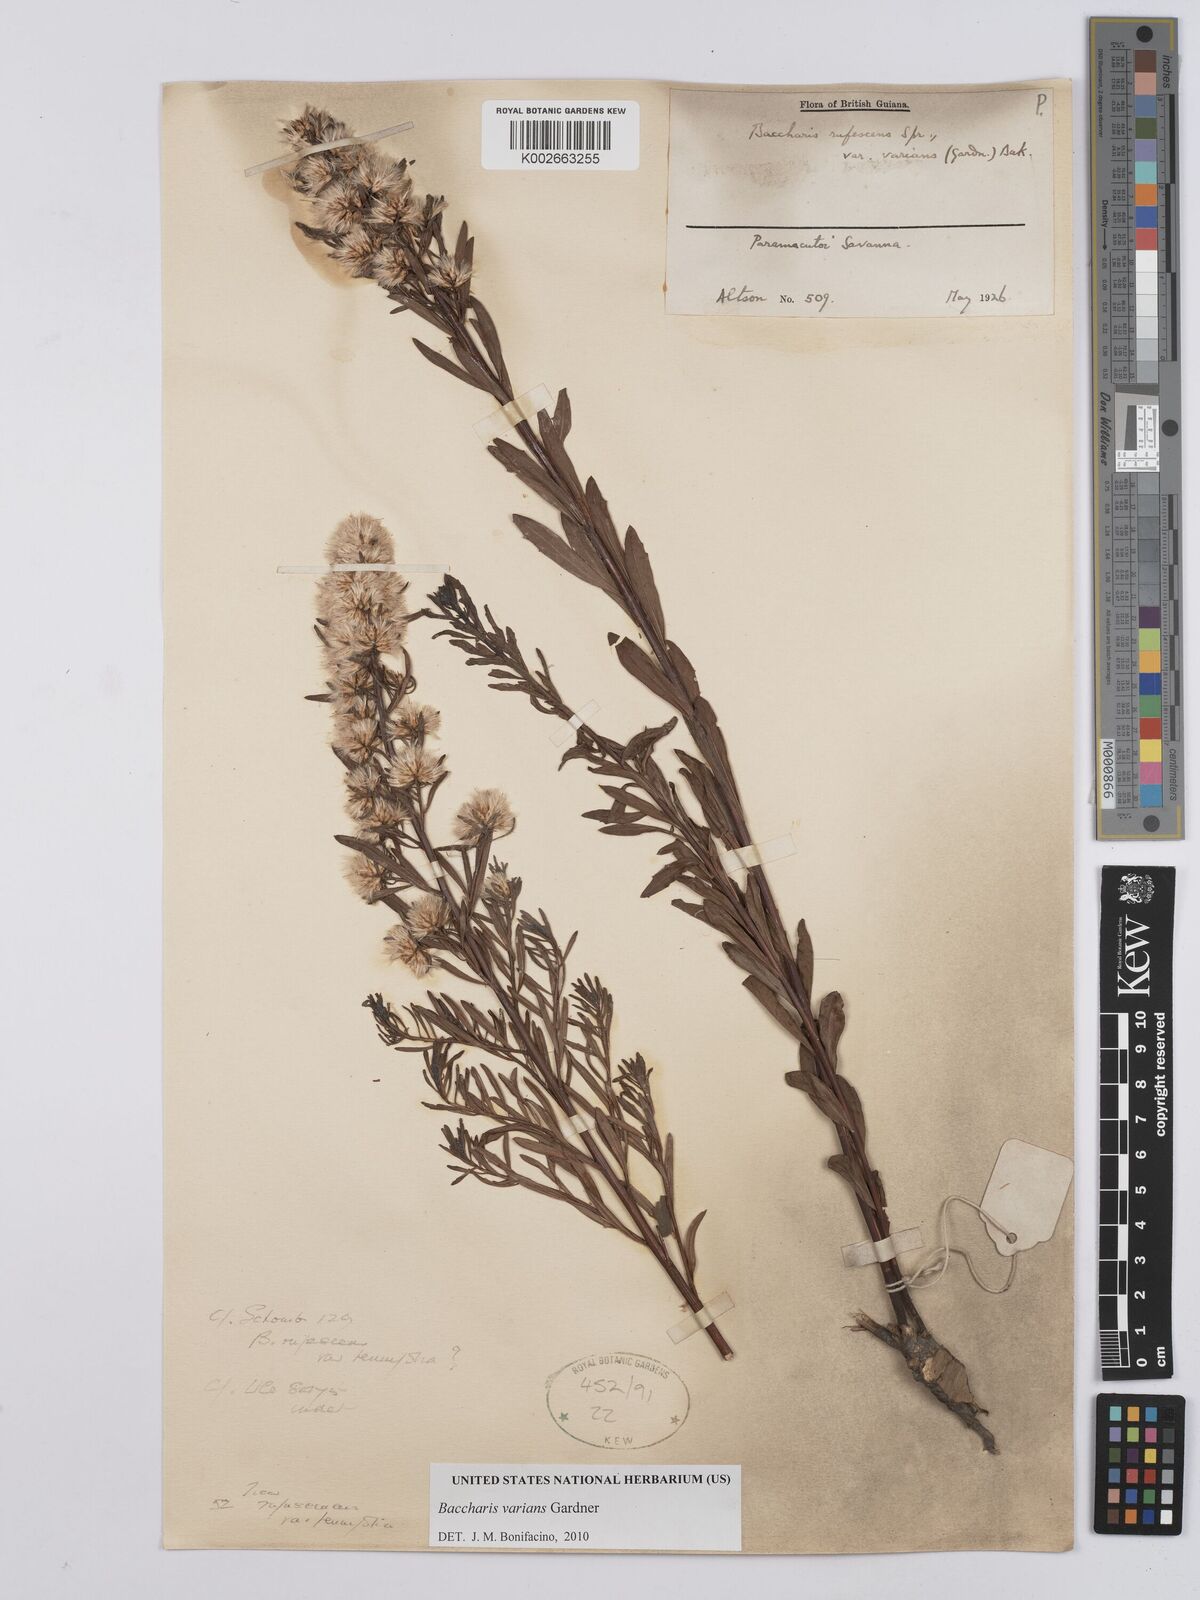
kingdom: Plantae
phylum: Tracheophyta
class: Magnoliopsida
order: Asterales
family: Asteraceae
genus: Baccharis
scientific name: Baccharis varians
